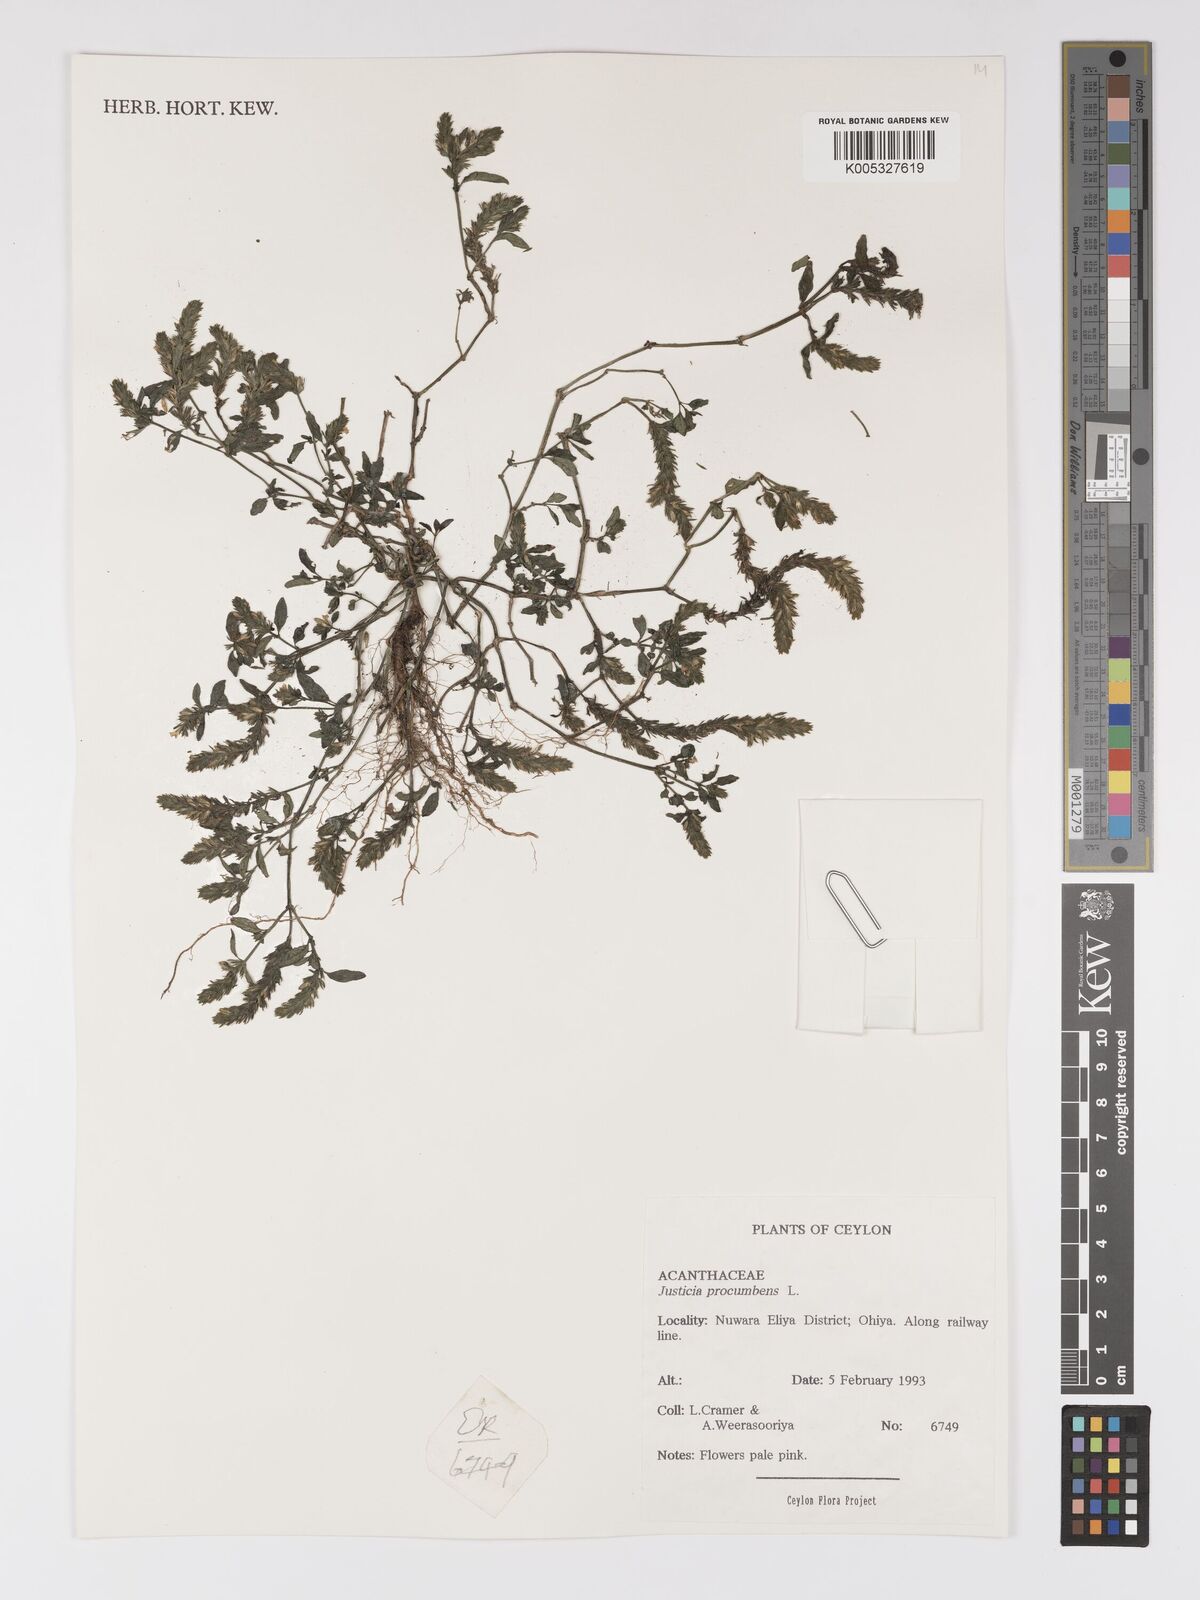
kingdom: Plantae
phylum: Tracheophyta
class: Magnoliopsida
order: Lamiales
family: Acanthaceae
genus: Rostellularia
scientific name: Rostellularia procumbens
